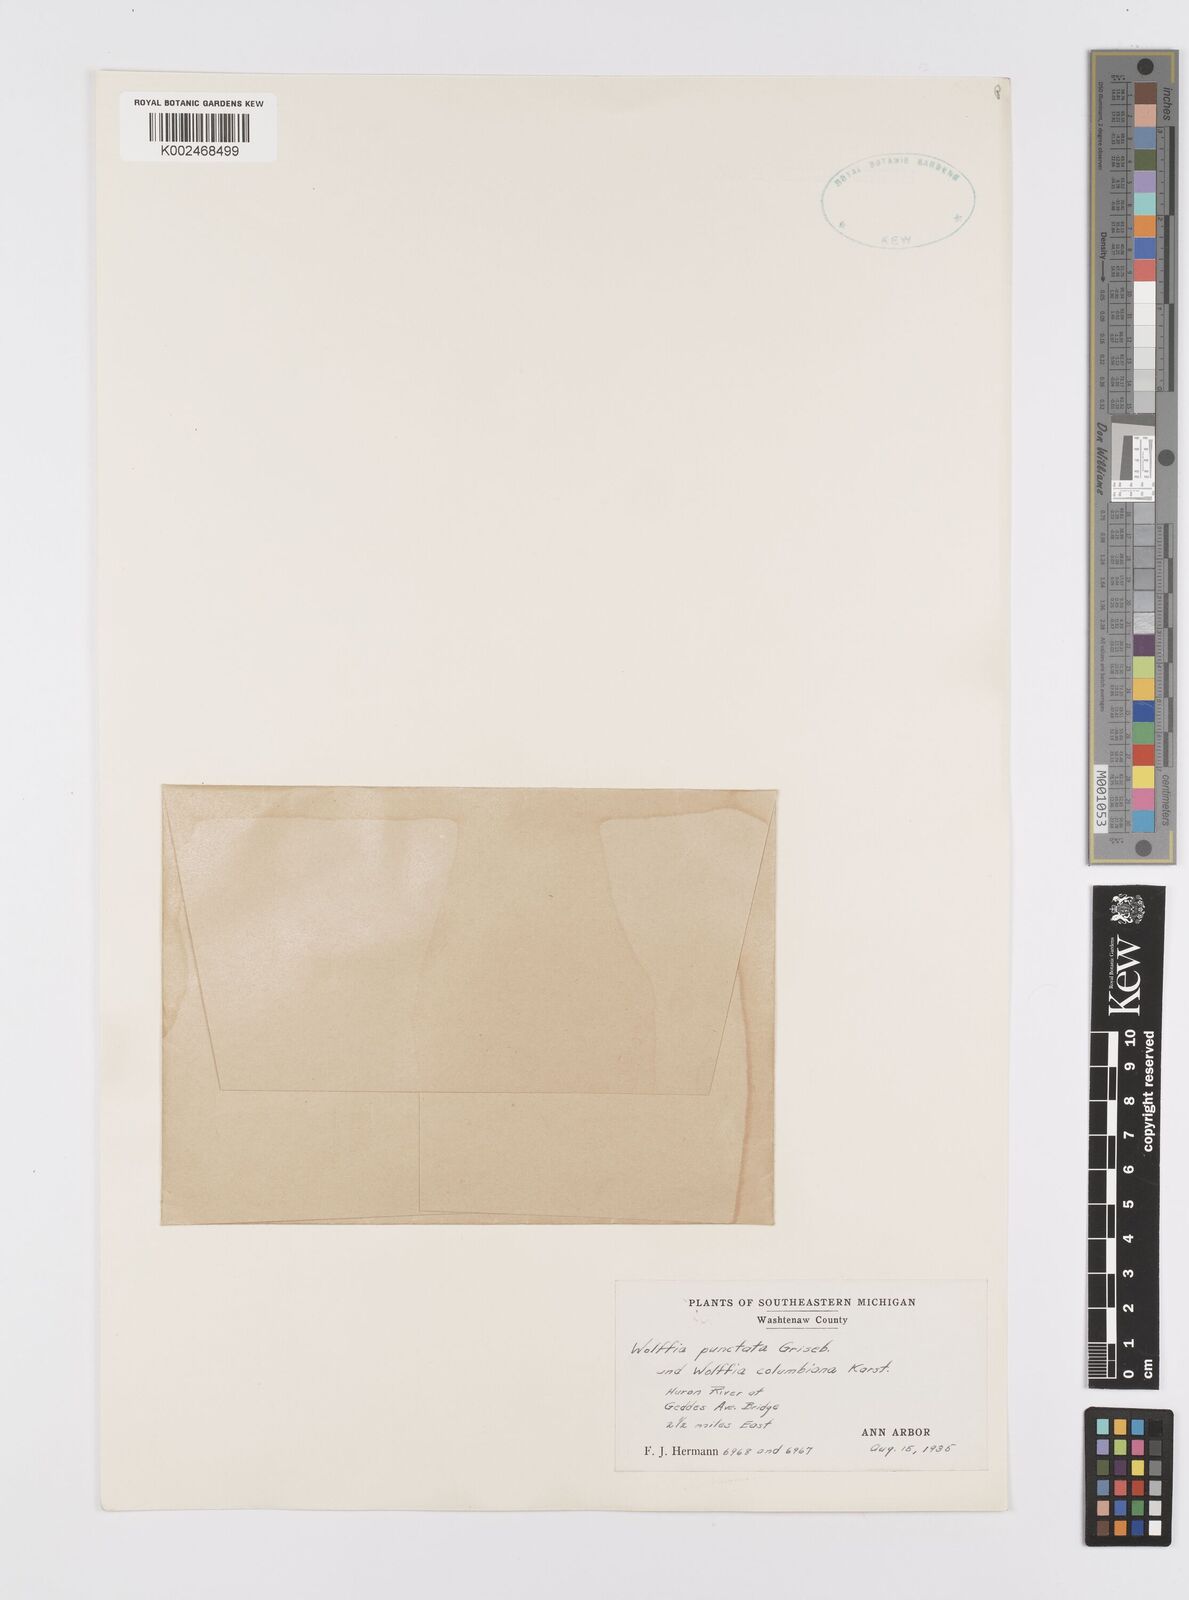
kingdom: Plantae
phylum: Tracheophyta
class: Liliopsida
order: Alismatales
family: Araceae
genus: Wolffia
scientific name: Wolffia brasiliensis
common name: Brazilian watermeal
